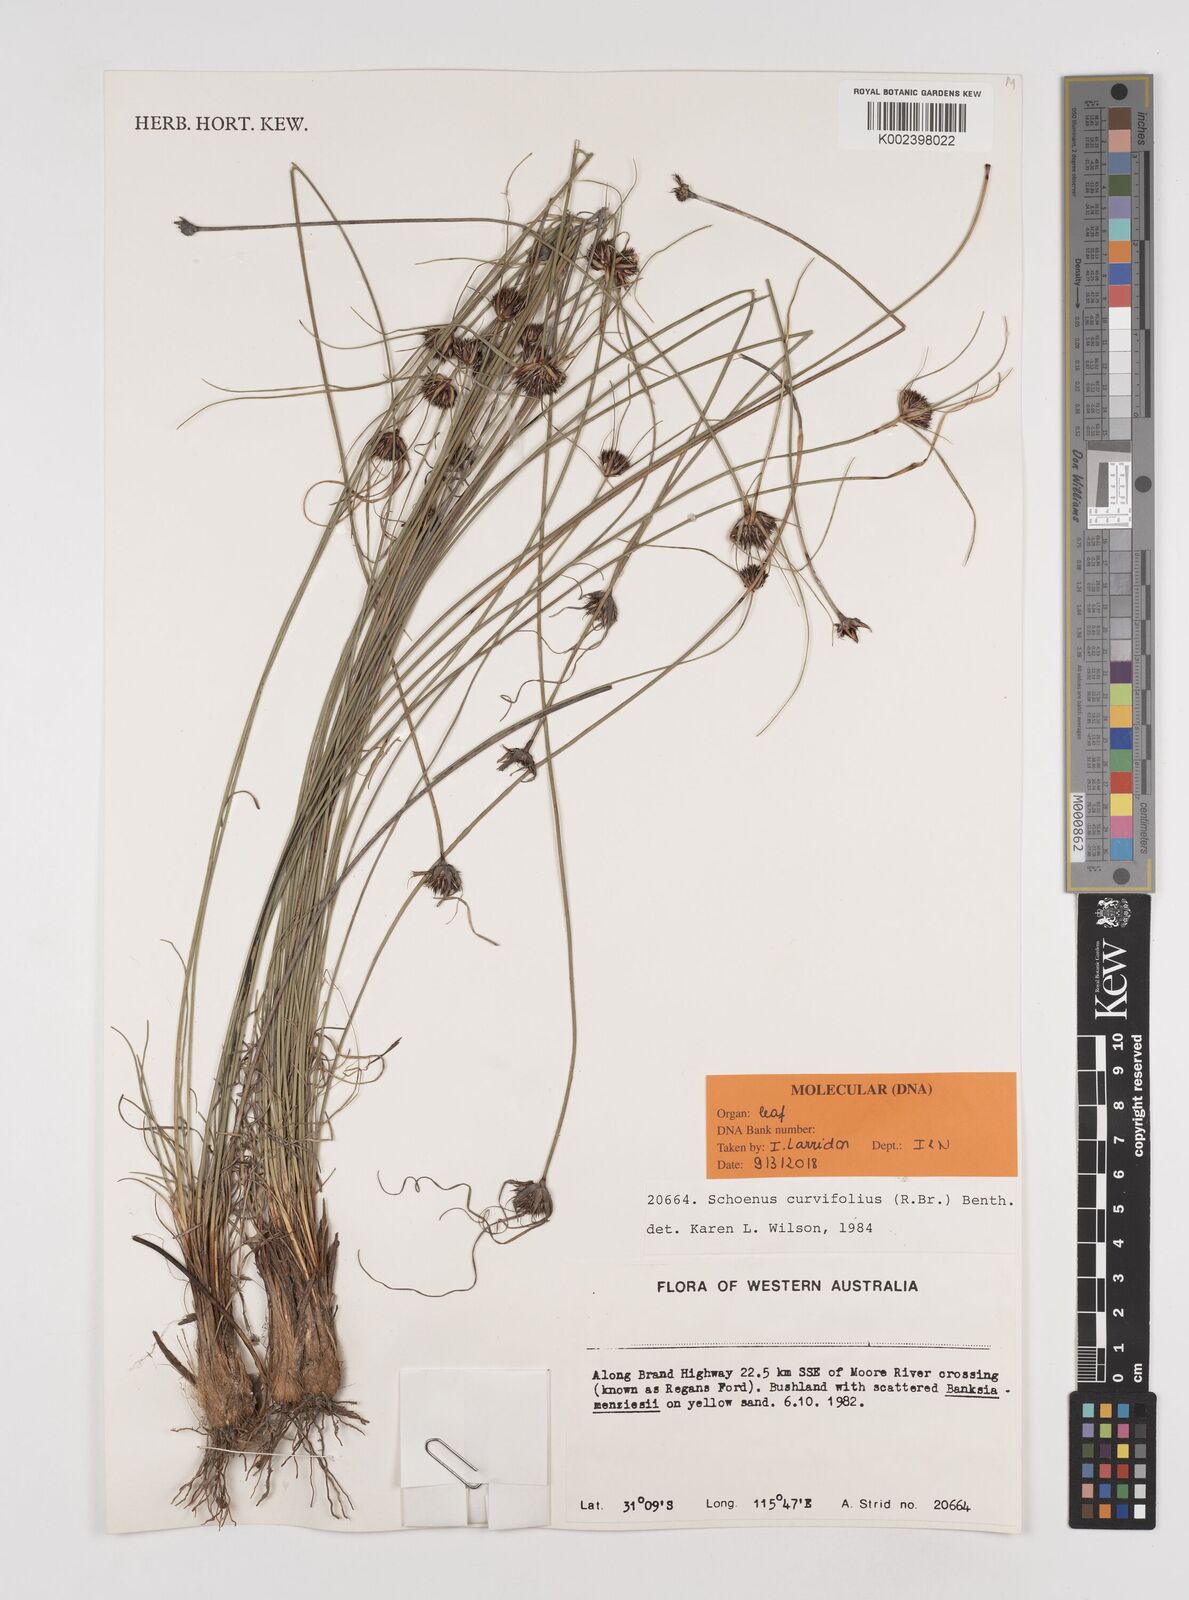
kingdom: Plantae
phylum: Tracheophyta
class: Liliopsida
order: Poales
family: Cyperaceae
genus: Schoenus
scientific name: Schoenus curvifolius
